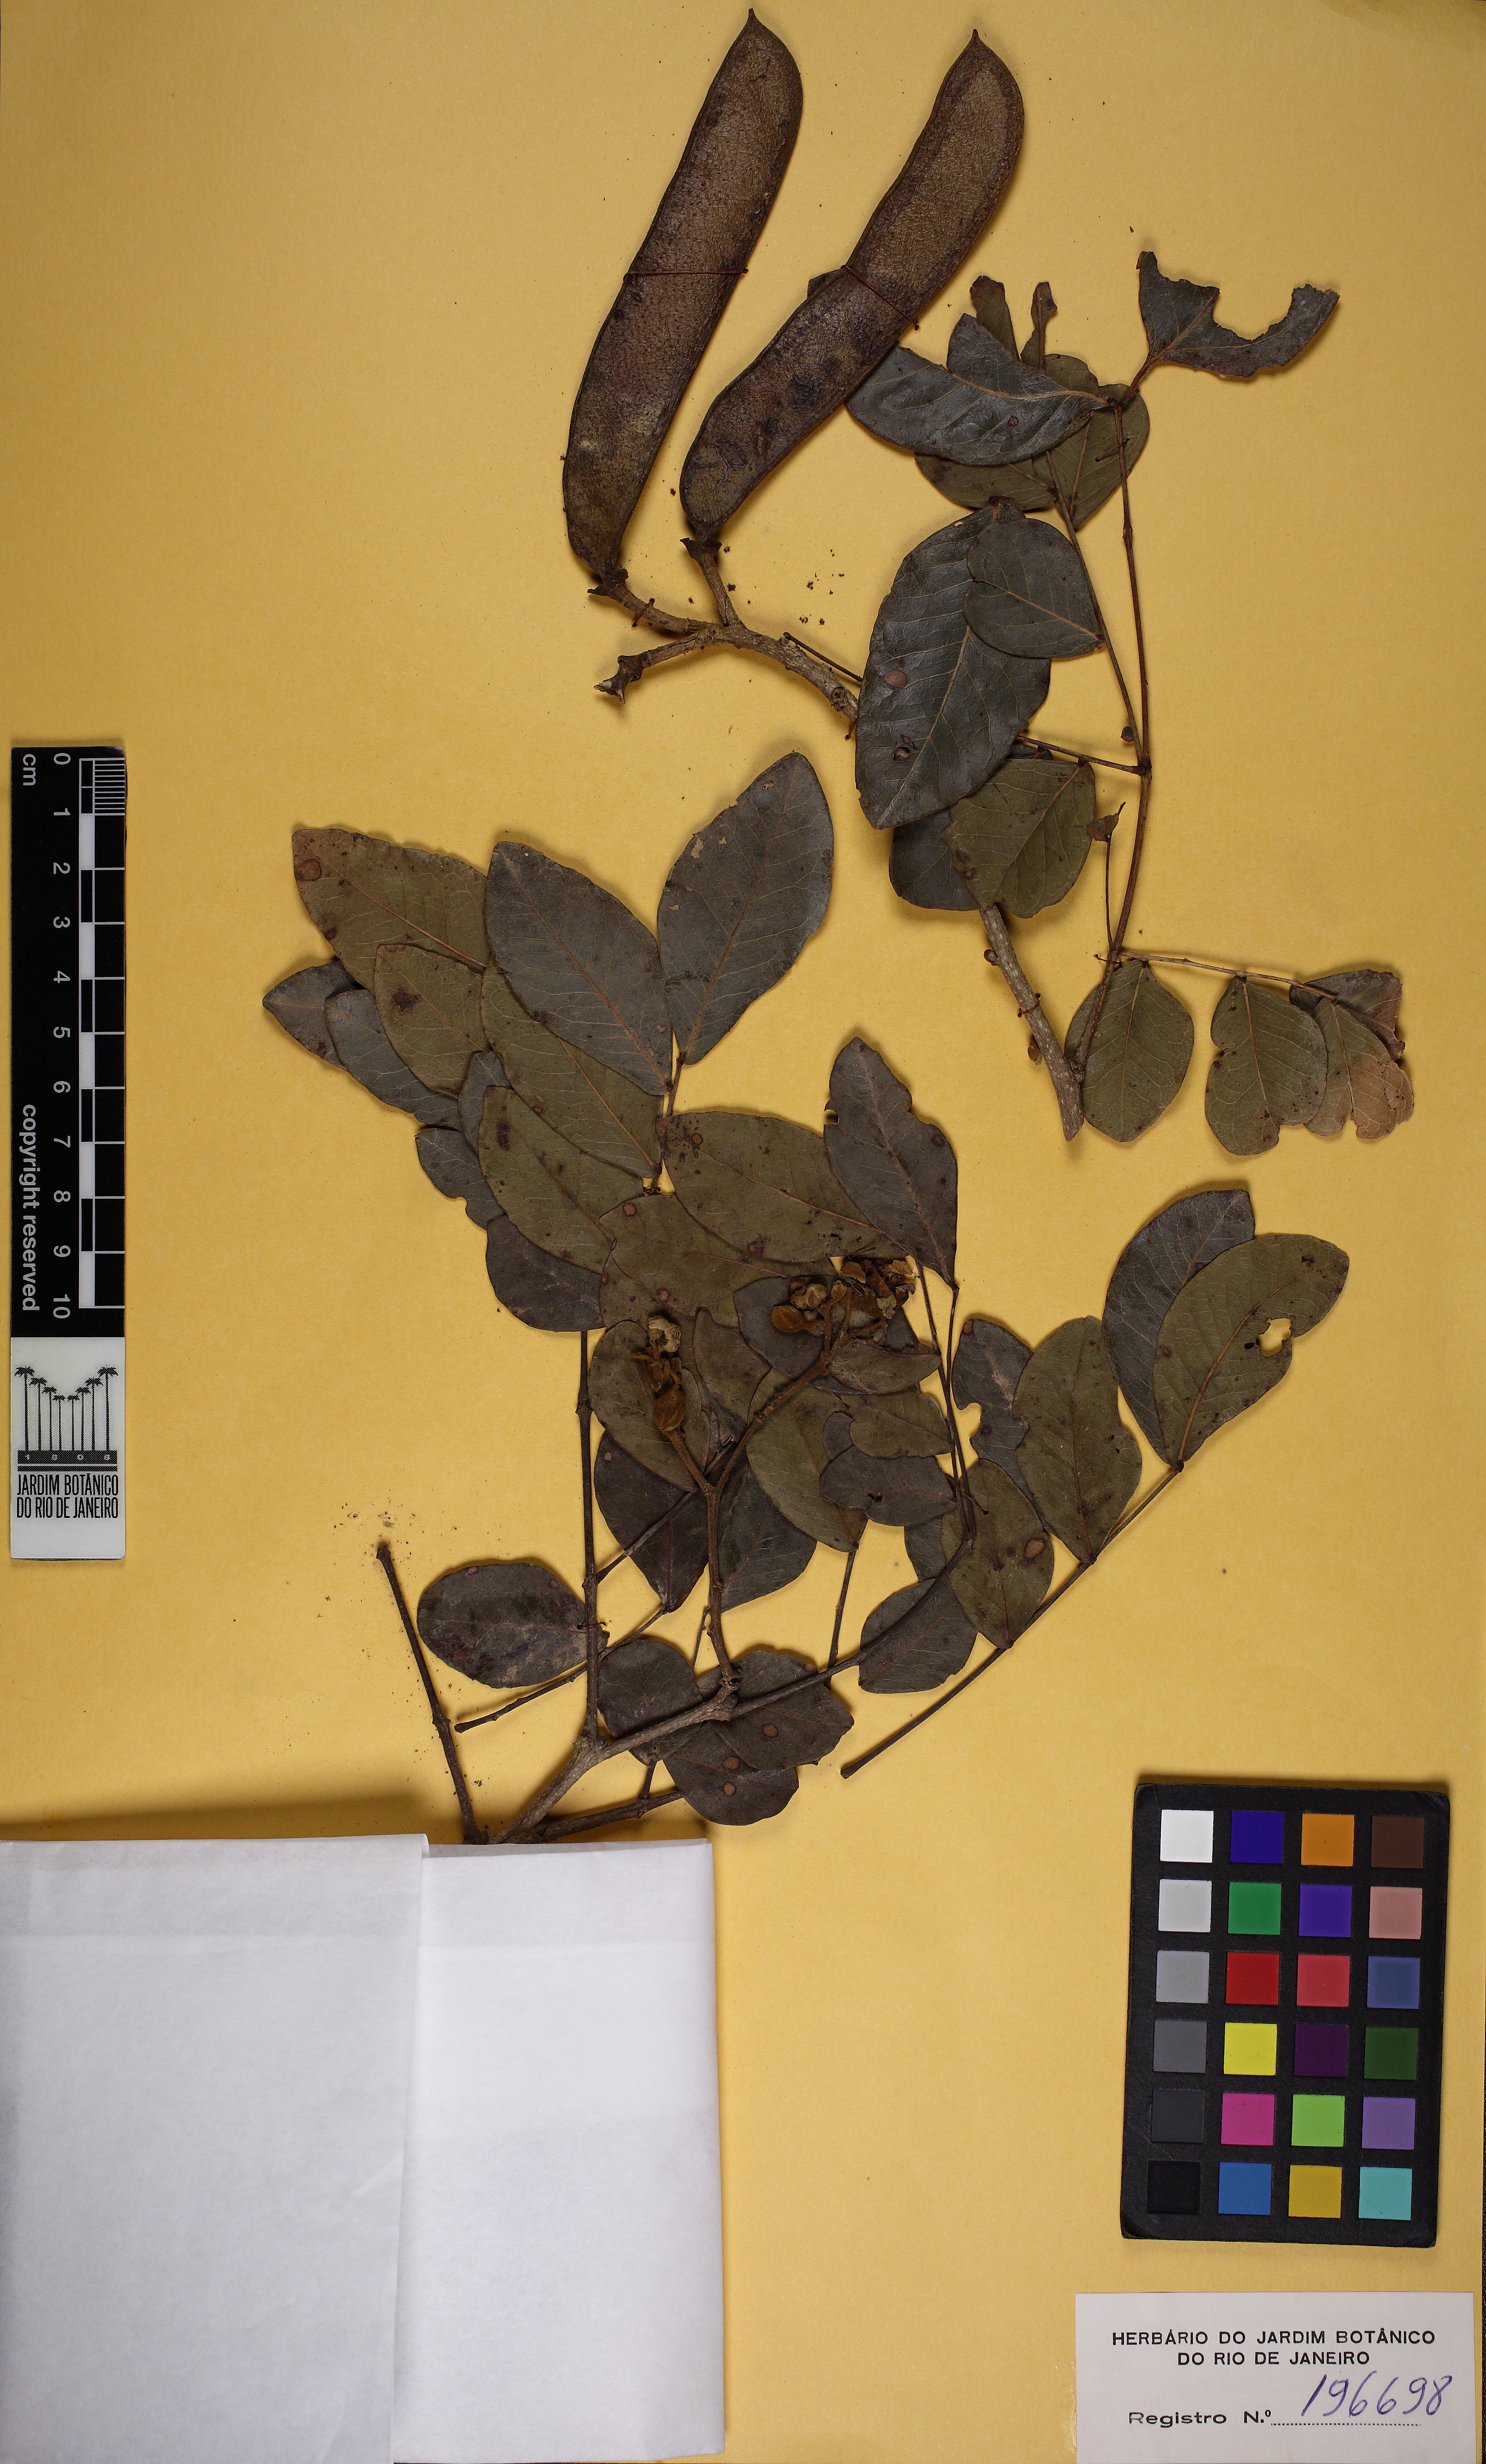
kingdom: Plantae
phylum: Tracheophyta
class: Magnoliopsida
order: Fabales
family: Fabaceae
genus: Cenostigma
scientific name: Cenostigma bracteosum
